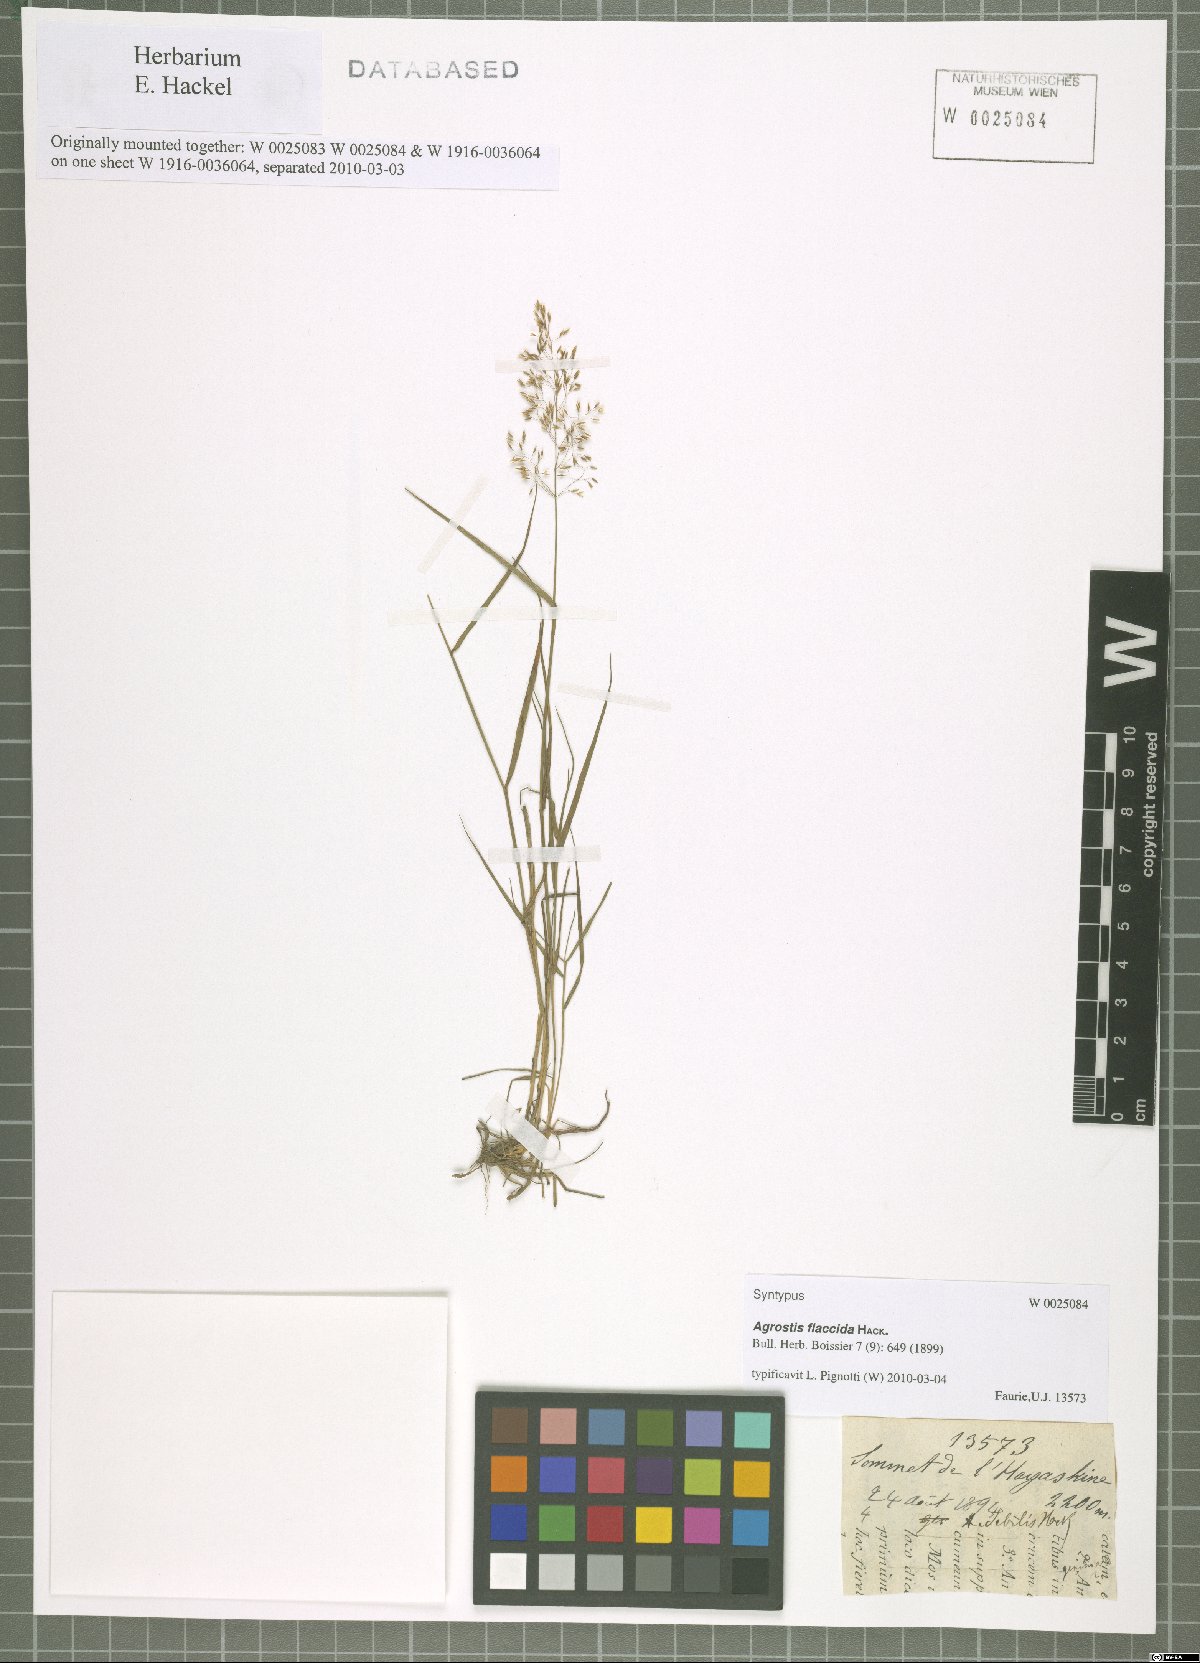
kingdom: Plantae
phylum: Tracheophyta
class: Liliopsida
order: Poales
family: Poaceae
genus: Agrostis
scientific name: Agrostis flaccida
